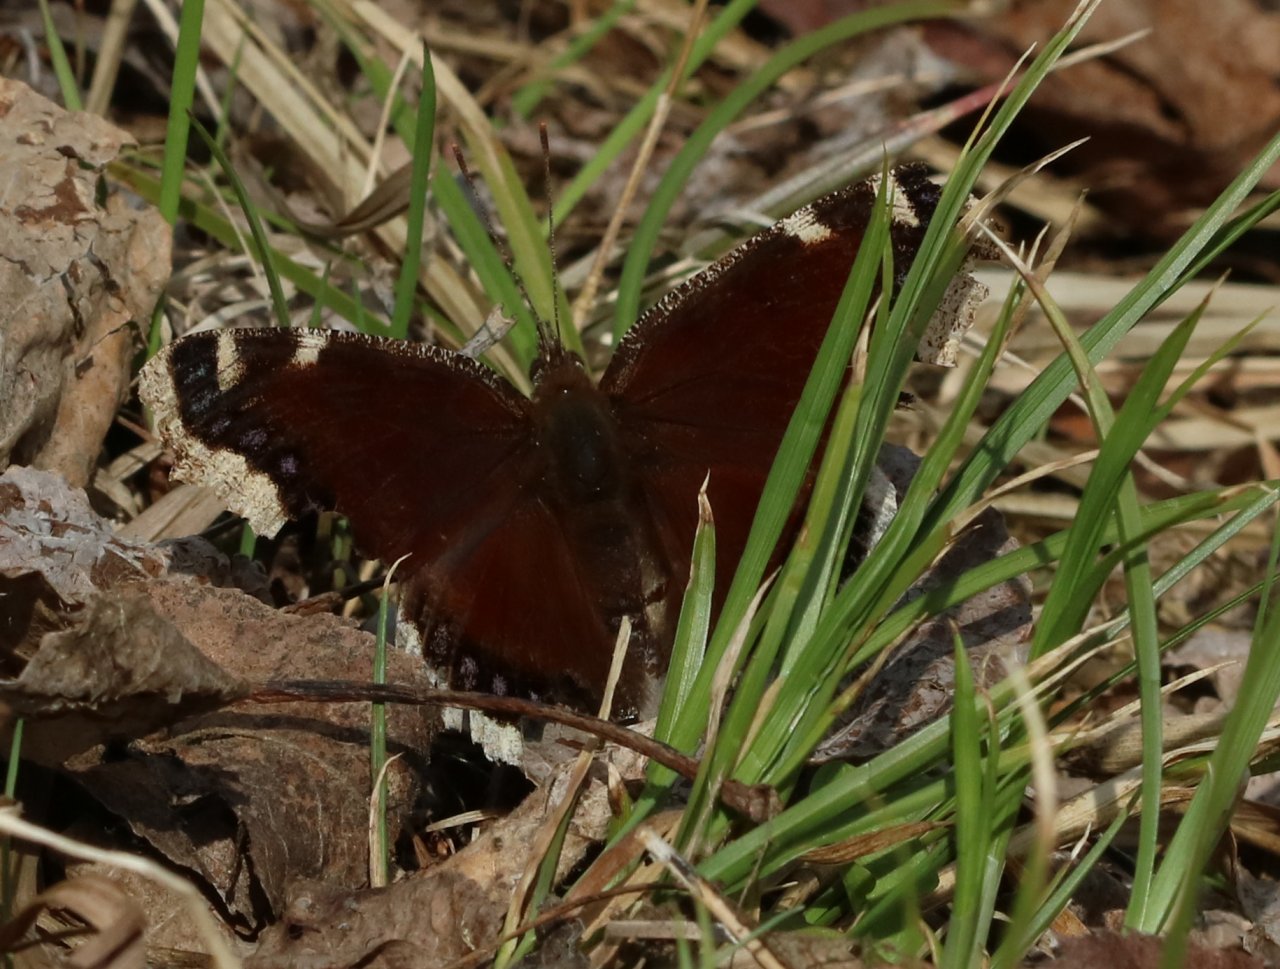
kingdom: Animalia
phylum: Arthropoda
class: Insecta
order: Lepidoptera
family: Nymphalidae
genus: Nymphalis
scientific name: Nymphalis antiopa
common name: Mourning Cloak
